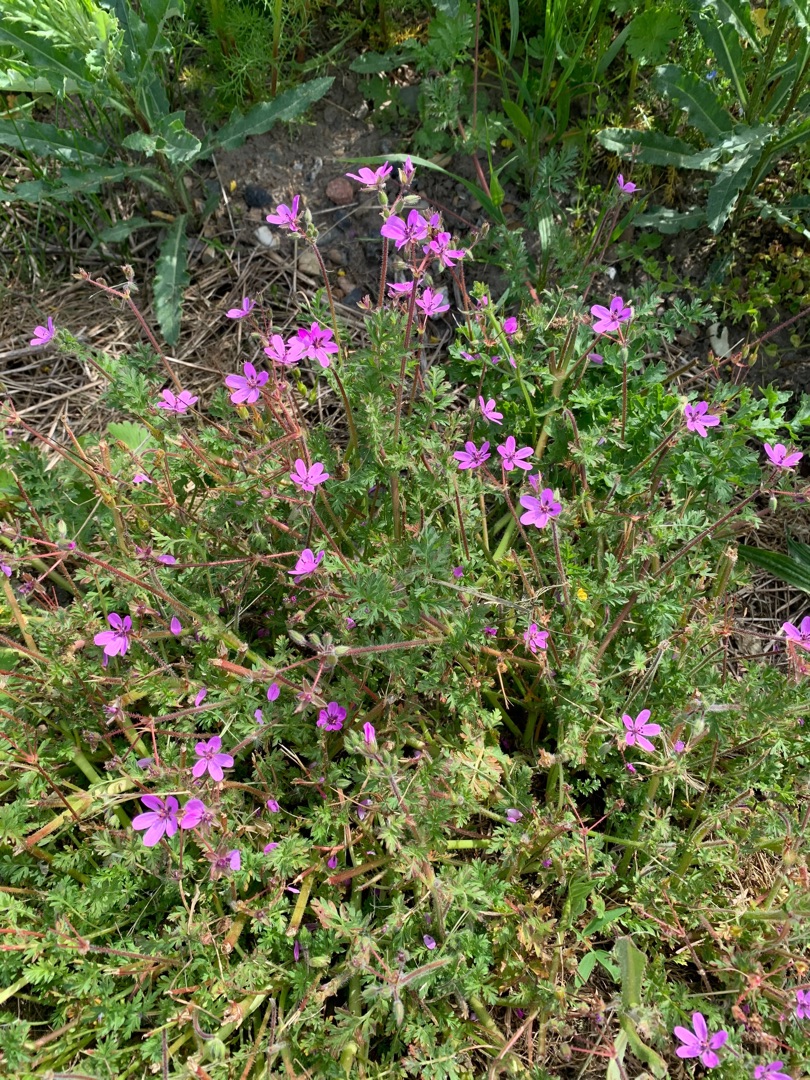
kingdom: Plantae
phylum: Tracheophyta
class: Magnoliopsida
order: Geraniales
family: Geraniaceae
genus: Erodium
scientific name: Erodium cicutarium
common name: Hejrenæb
